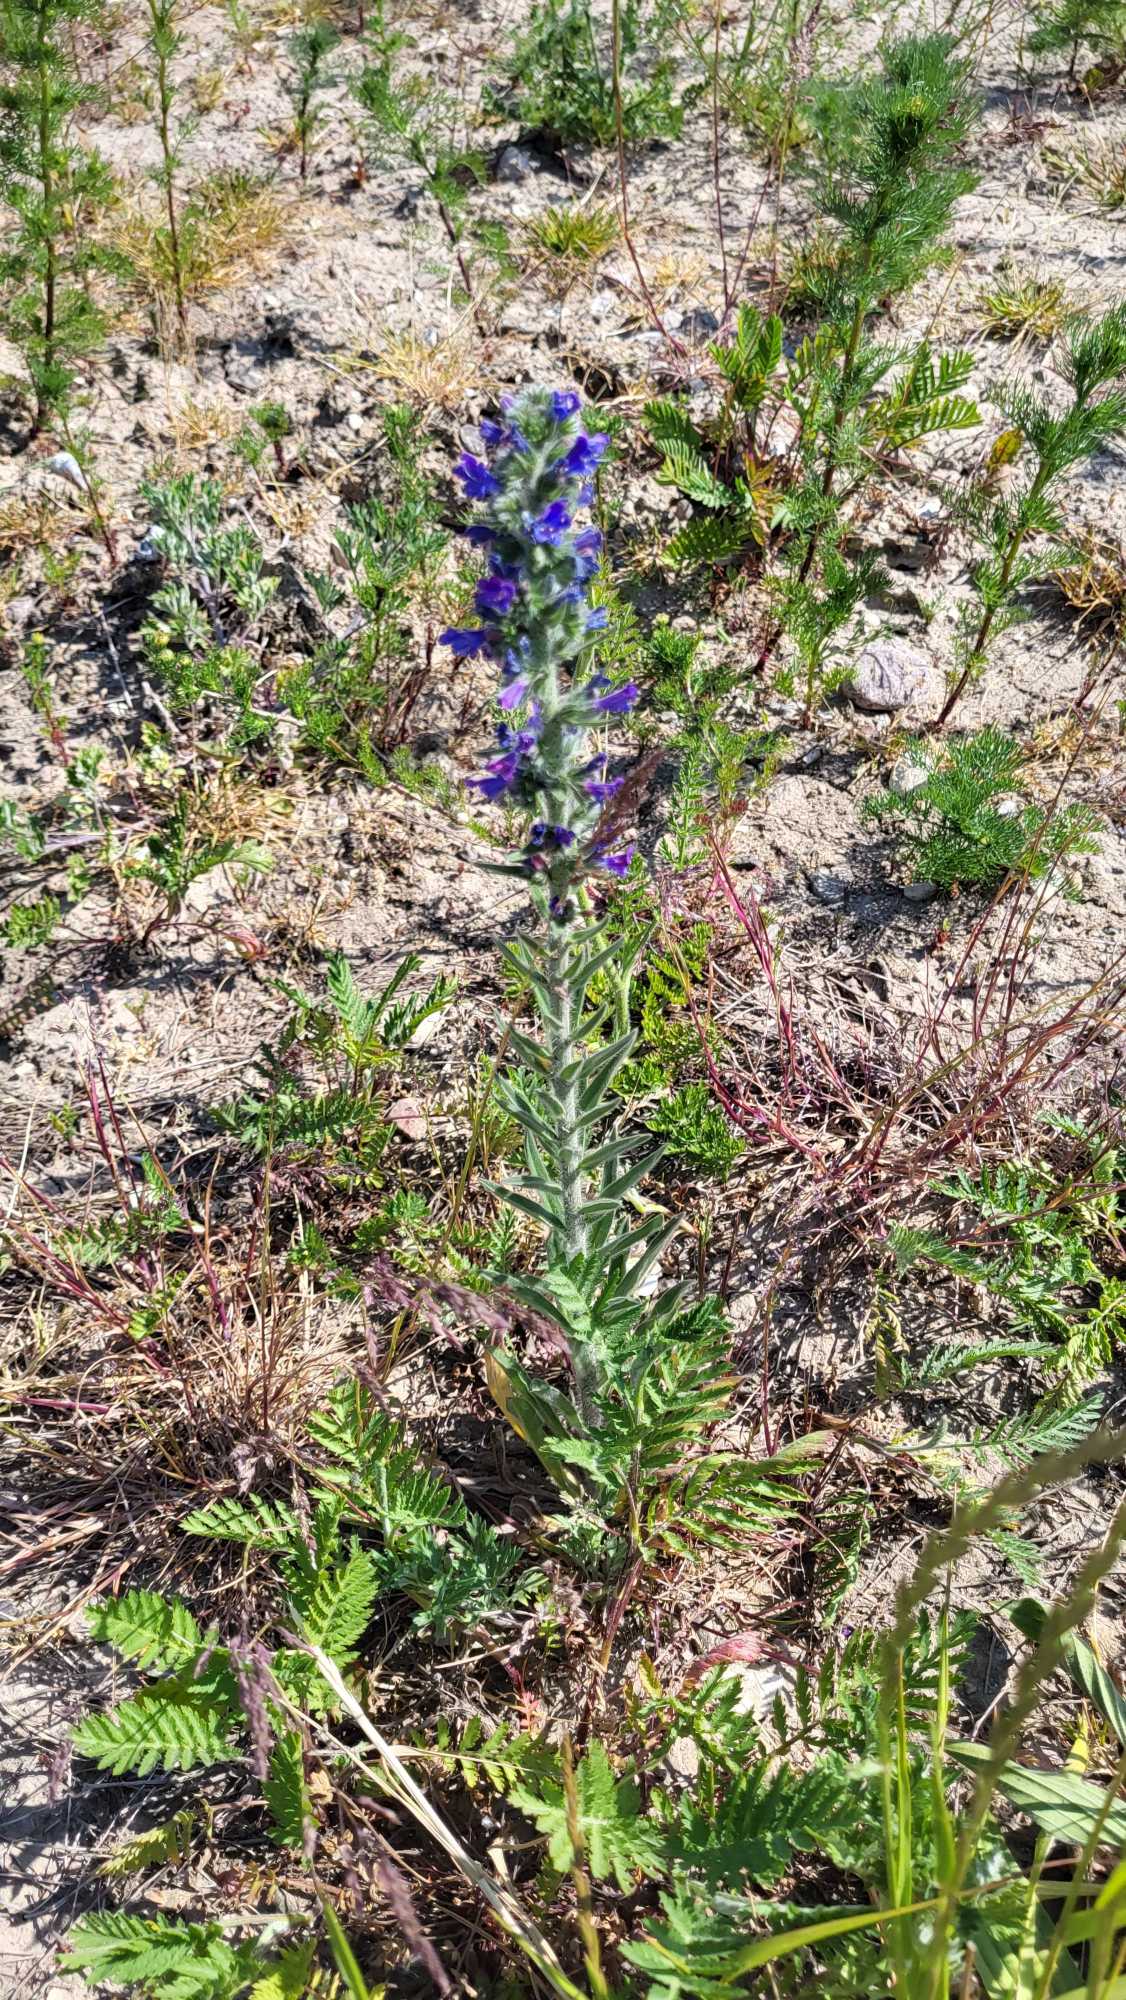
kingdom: Plantae
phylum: Tracheophyta
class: Magnoliopsida
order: Boraginales
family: Boraginaceae
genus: Echium
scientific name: Echium vulgare
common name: Slangehoved
